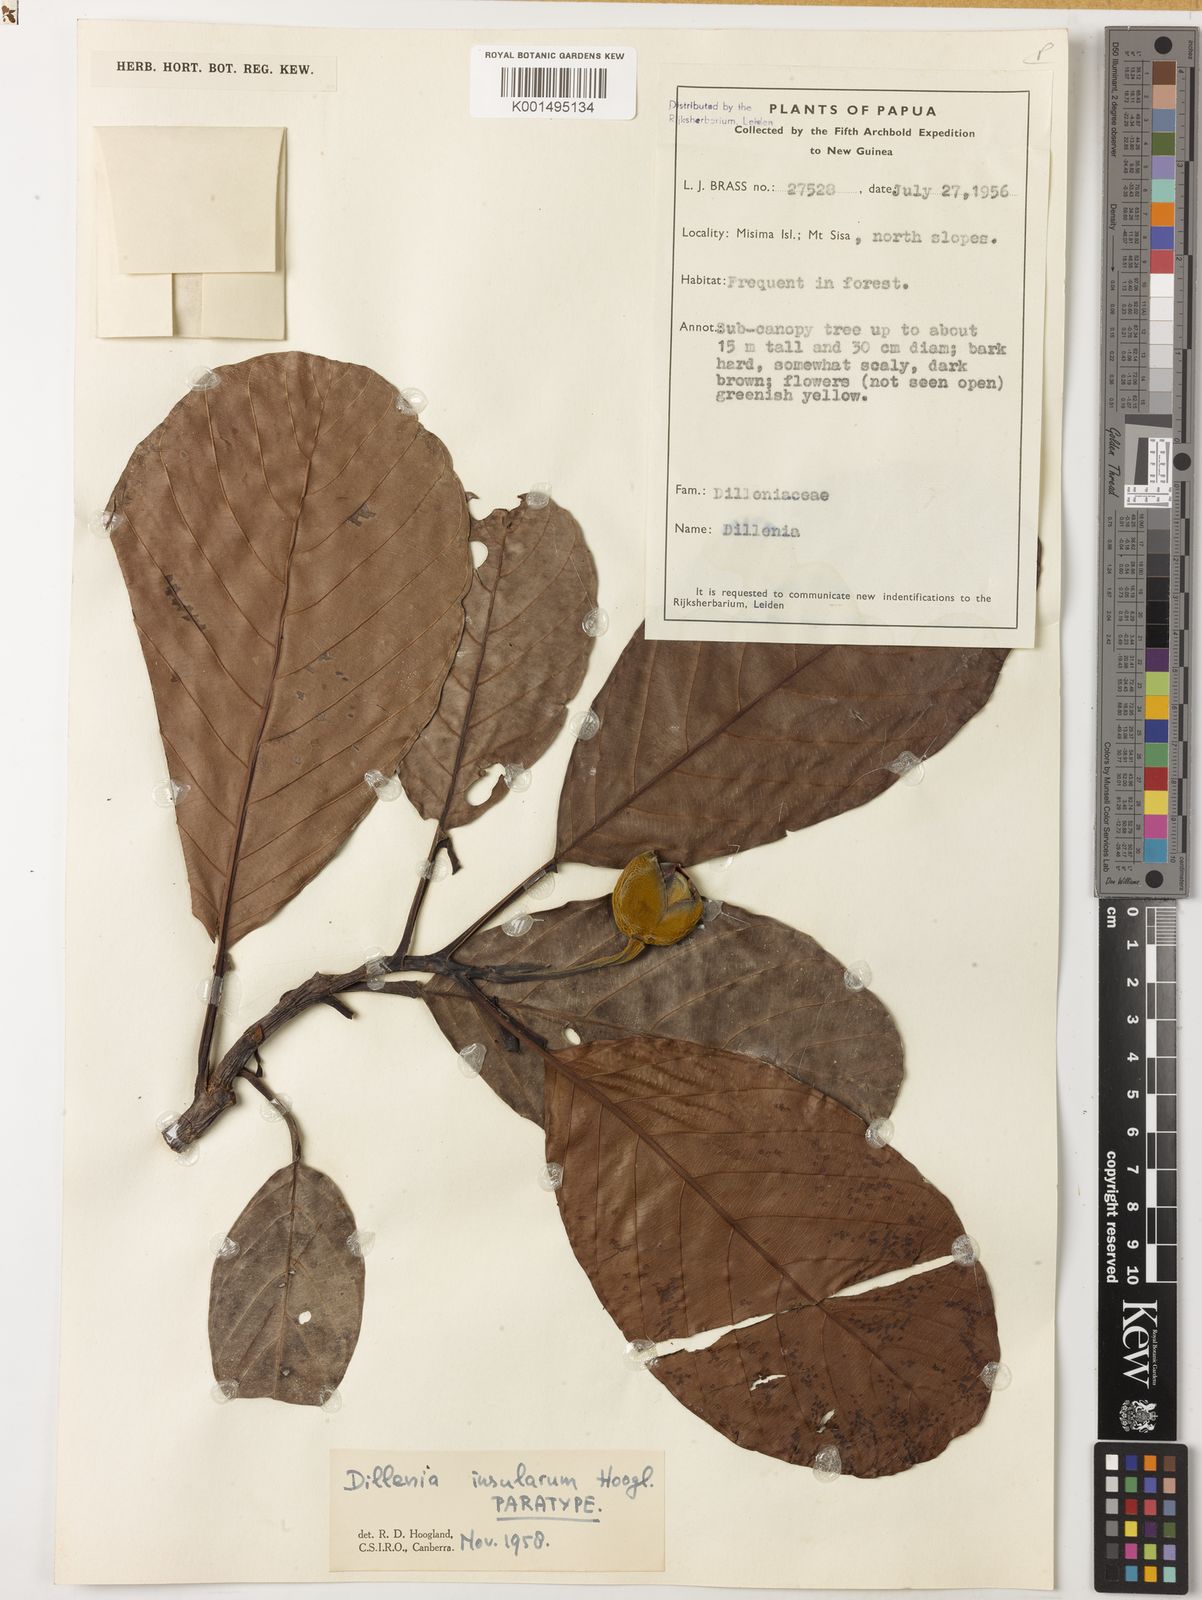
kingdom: Plantae
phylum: Tracheophyta
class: Magnoliopsida
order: Dilleniales
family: Dilleniaceae
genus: Dillenia
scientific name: Dillenia insularum
